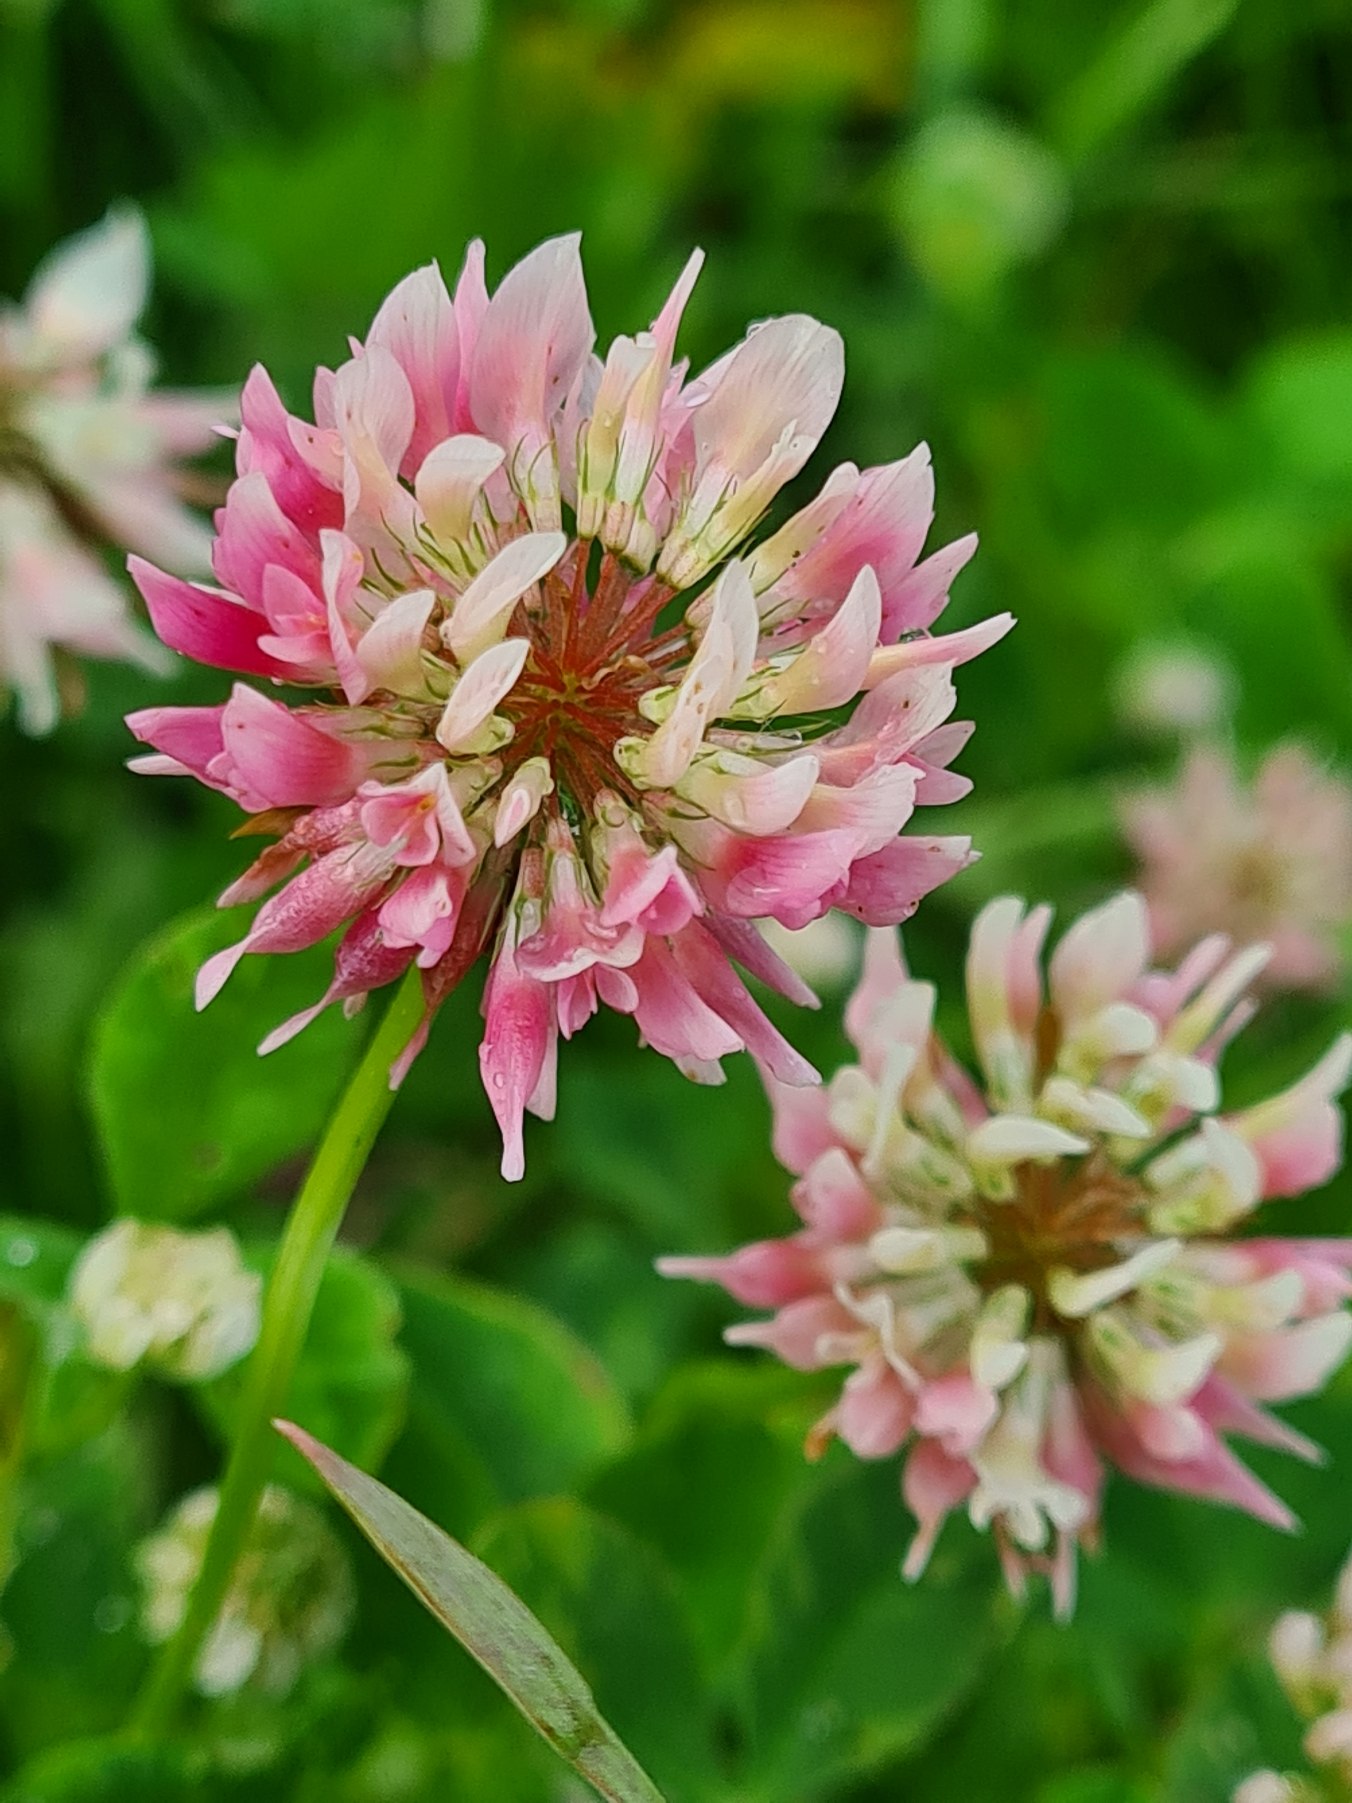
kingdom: Plantae
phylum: Tracheophyta
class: Magnoliopsida
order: Fabales
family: Fabaceae
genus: Trifolium
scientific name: Trifolium hybridum
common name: Alsike-kløver
